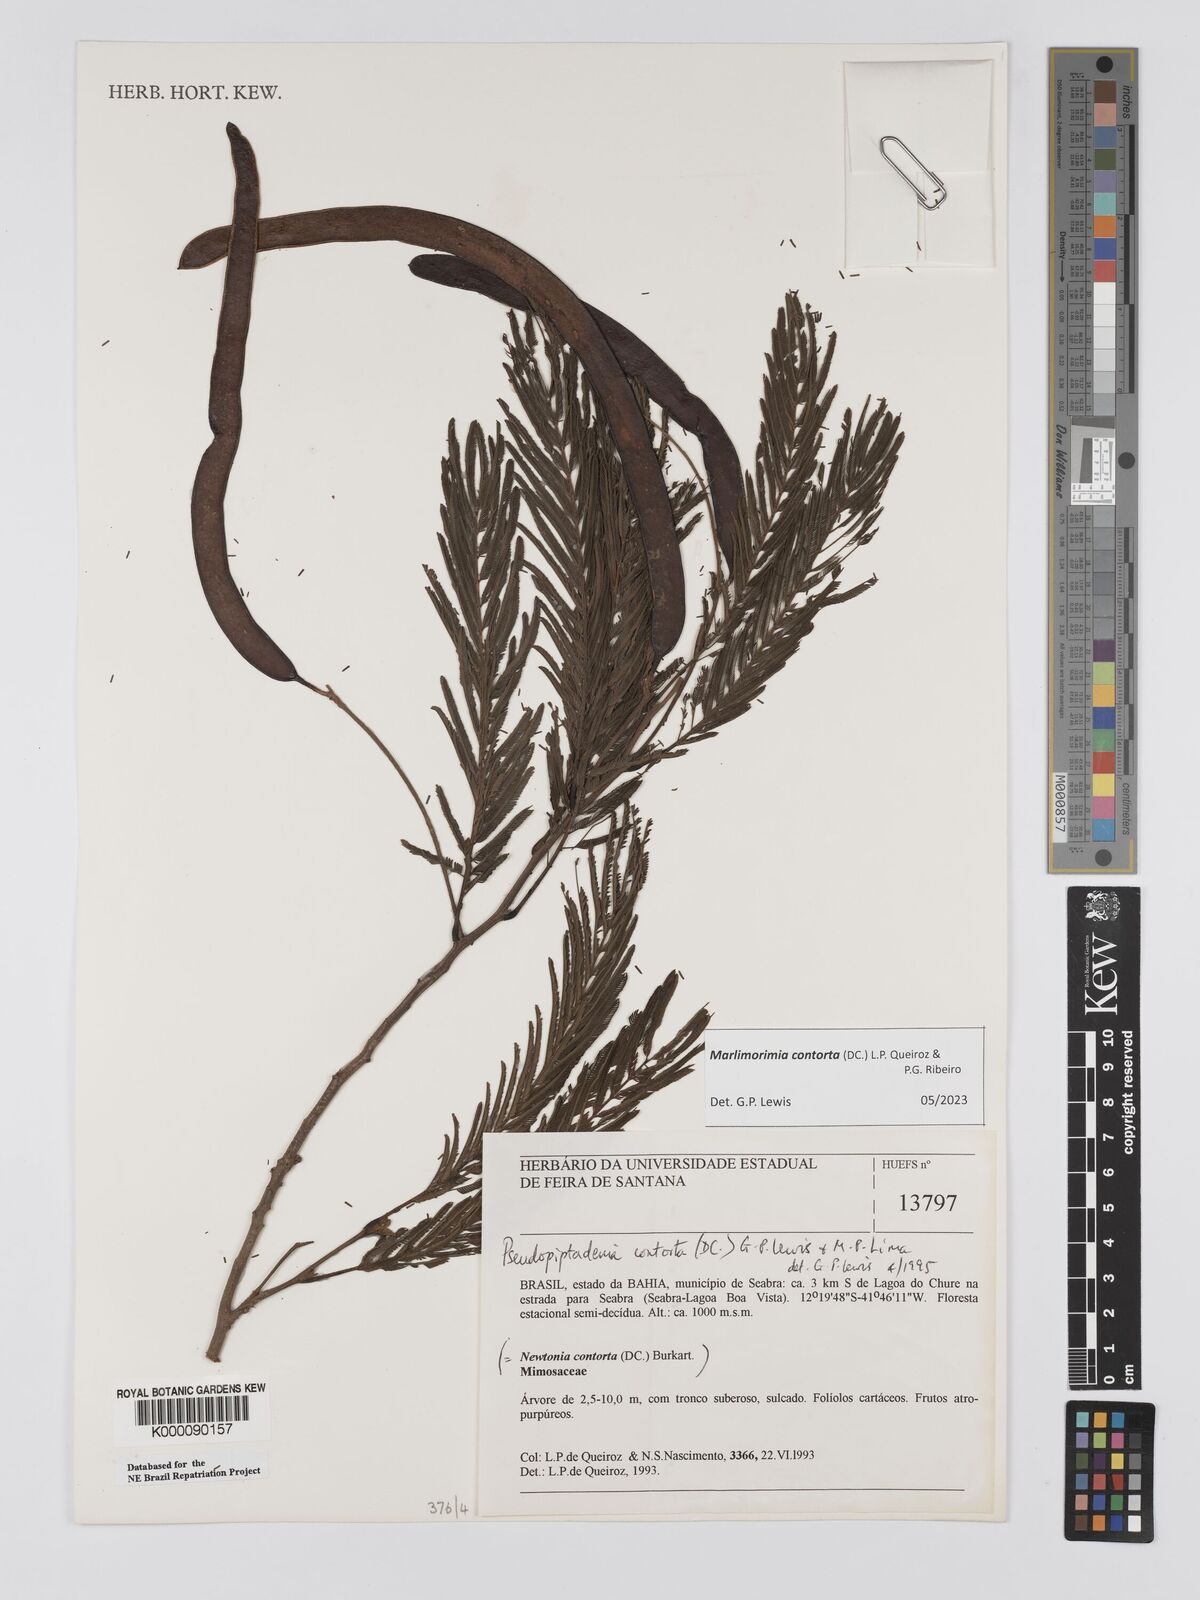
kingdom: Plantae
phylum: Tracheophyta
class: Magnoliopsida
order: Fabales
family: Fabaceae
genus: Pseudopiptadenia
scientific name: Pseudopiptadenia contorta
